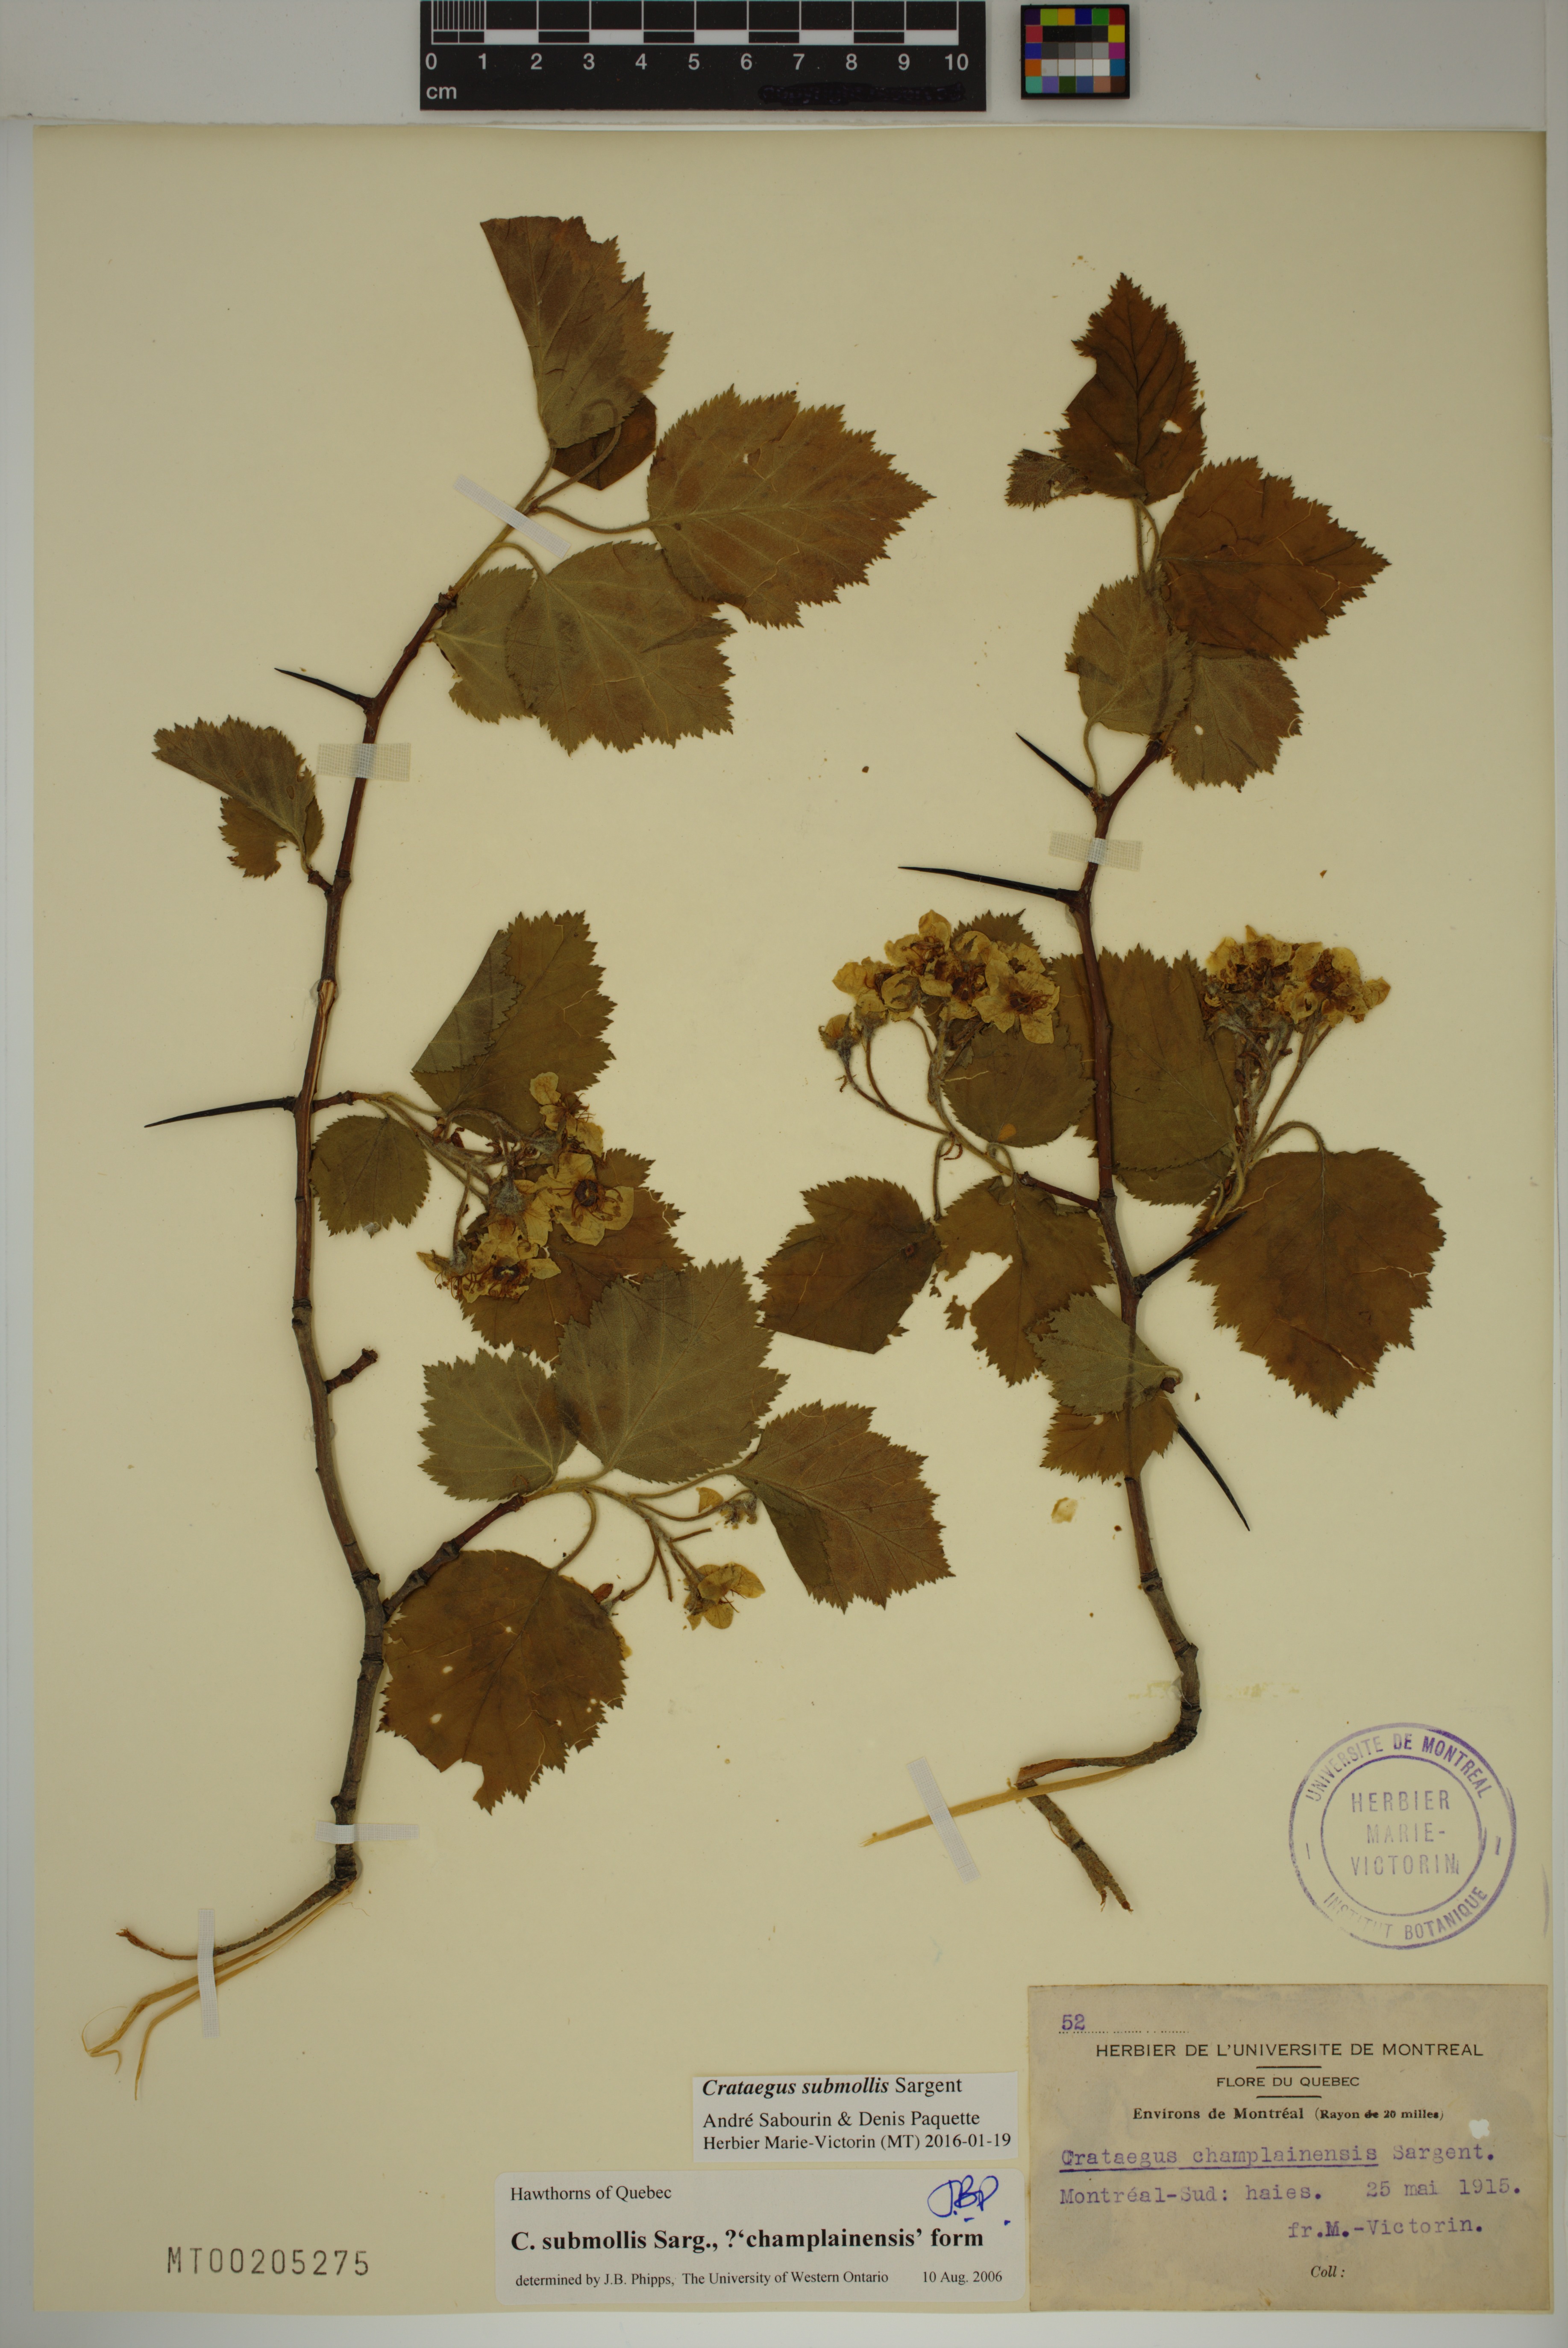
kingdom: Plantae
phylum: Tracheophyta
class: Magnoliopsida
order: Rosales
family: Rosaceae
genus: Crataegus
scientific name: Crataegus submollis
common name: Hairy cockspurthorn
